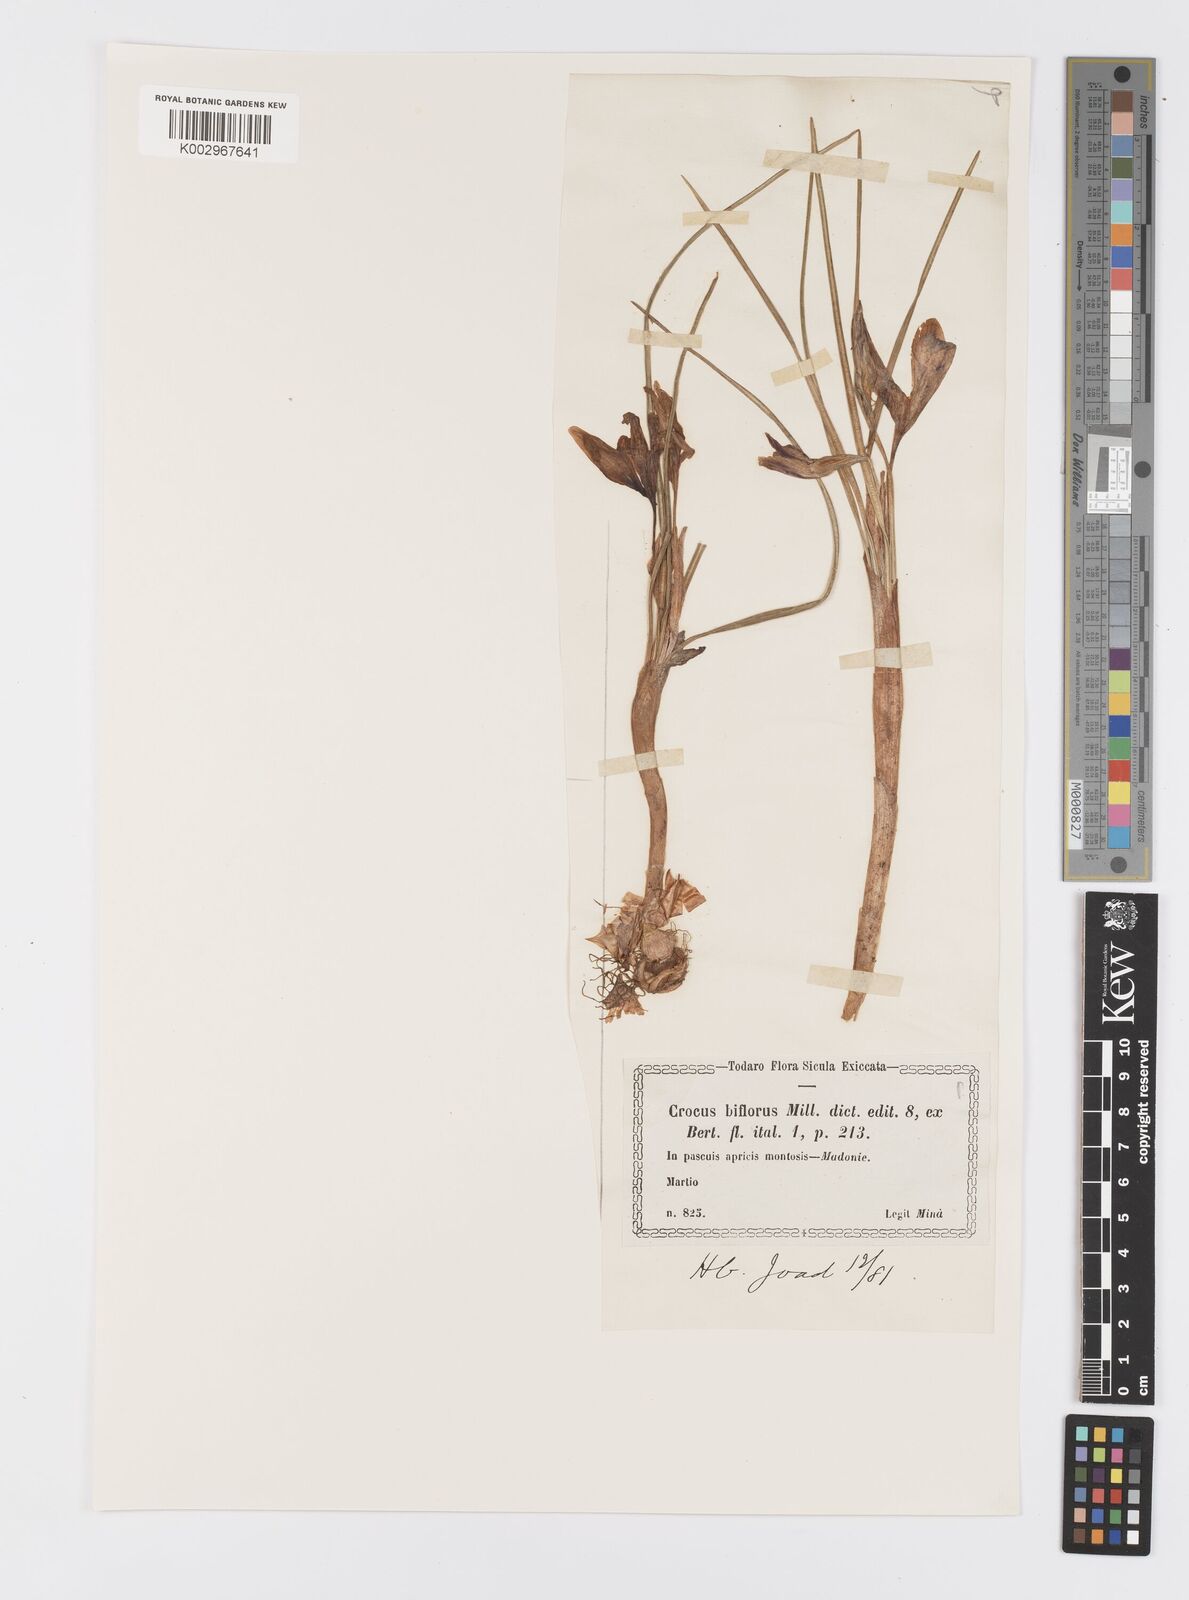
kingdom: Plantae
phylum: Tracheophyta
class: Liliopsida
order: Asparagales
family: Iridaceae
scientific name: Iridaceae
